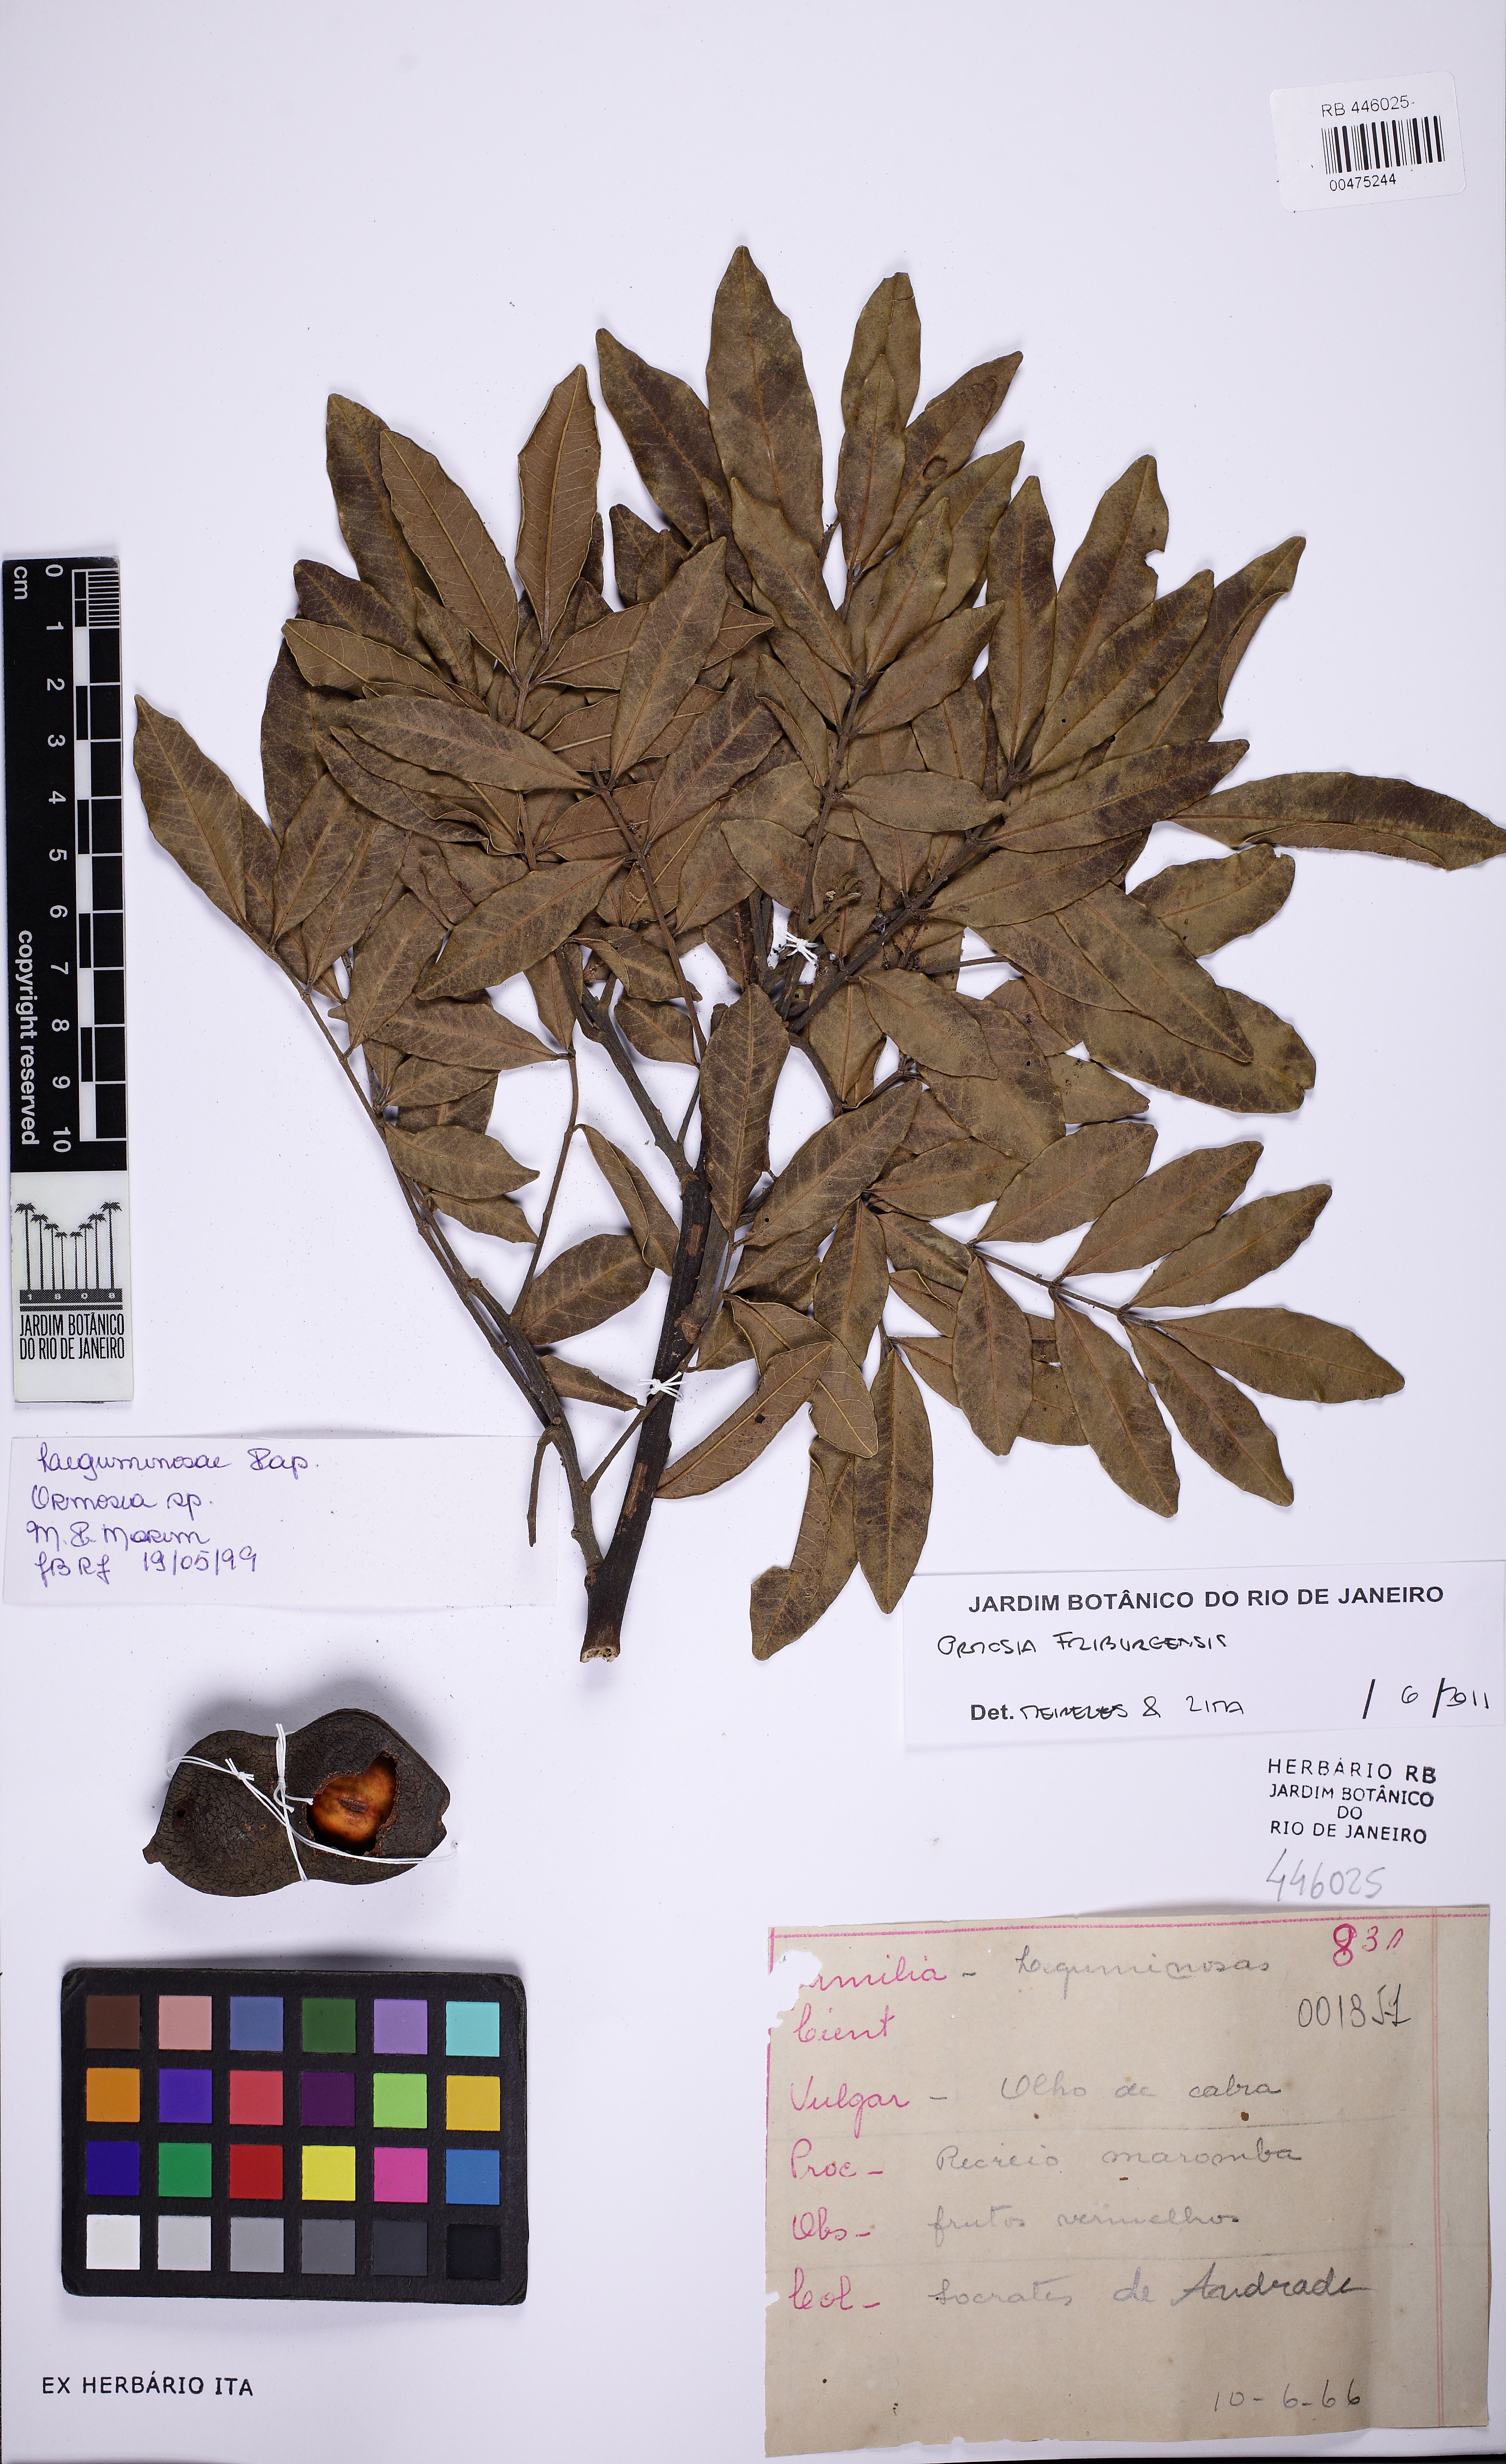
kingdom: Plantae
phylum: Tracheophyta
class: Magnoliopsida
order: Fabales
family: Fabaceae
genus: Ormosia
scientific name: Ormosia friburgensis
